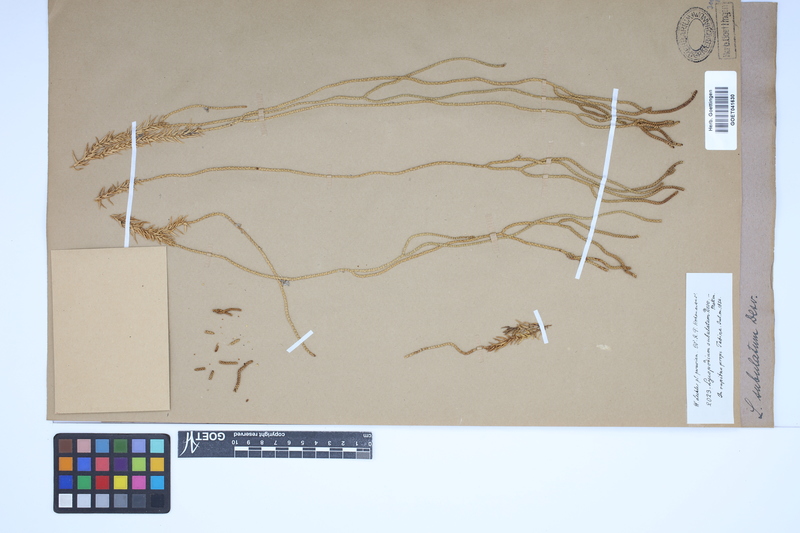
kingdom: Plantae
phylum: Tracheophyta
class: Lycopodiopsida
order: Lycopodiales
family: Lycopodiaceae
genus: Phlegmariurus
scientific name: Phlegmariurus subulatus
